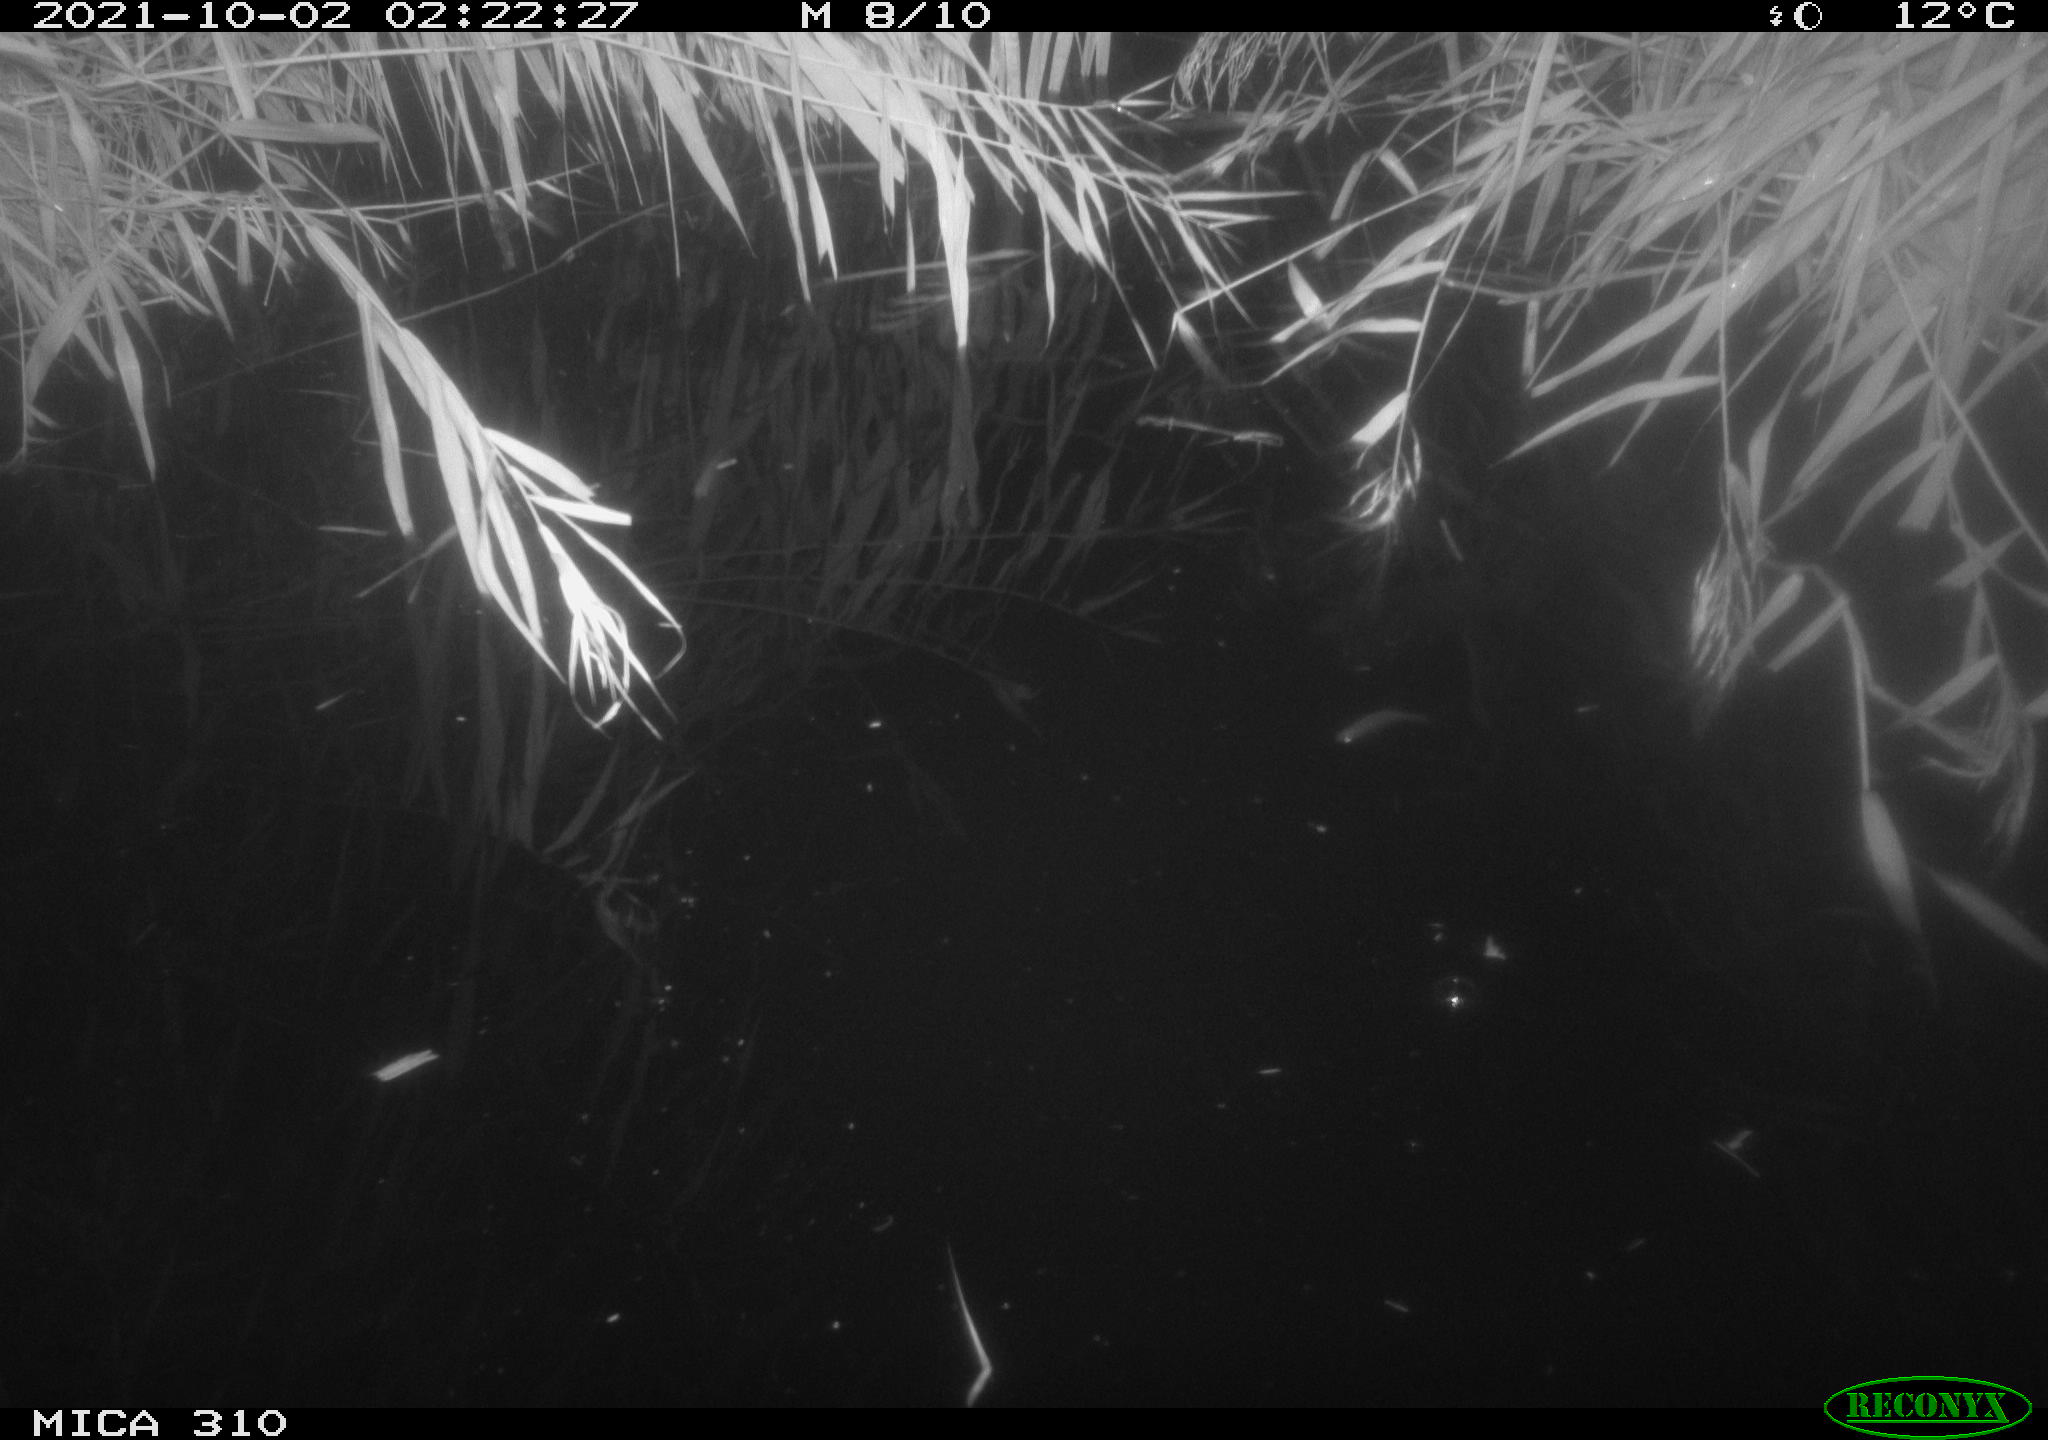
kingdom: Animalia
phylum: Chordata
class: Mammalia
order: Rodentia
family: Muridae
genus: Rattus
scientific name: Rattus norvegicus
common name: Brown rat
